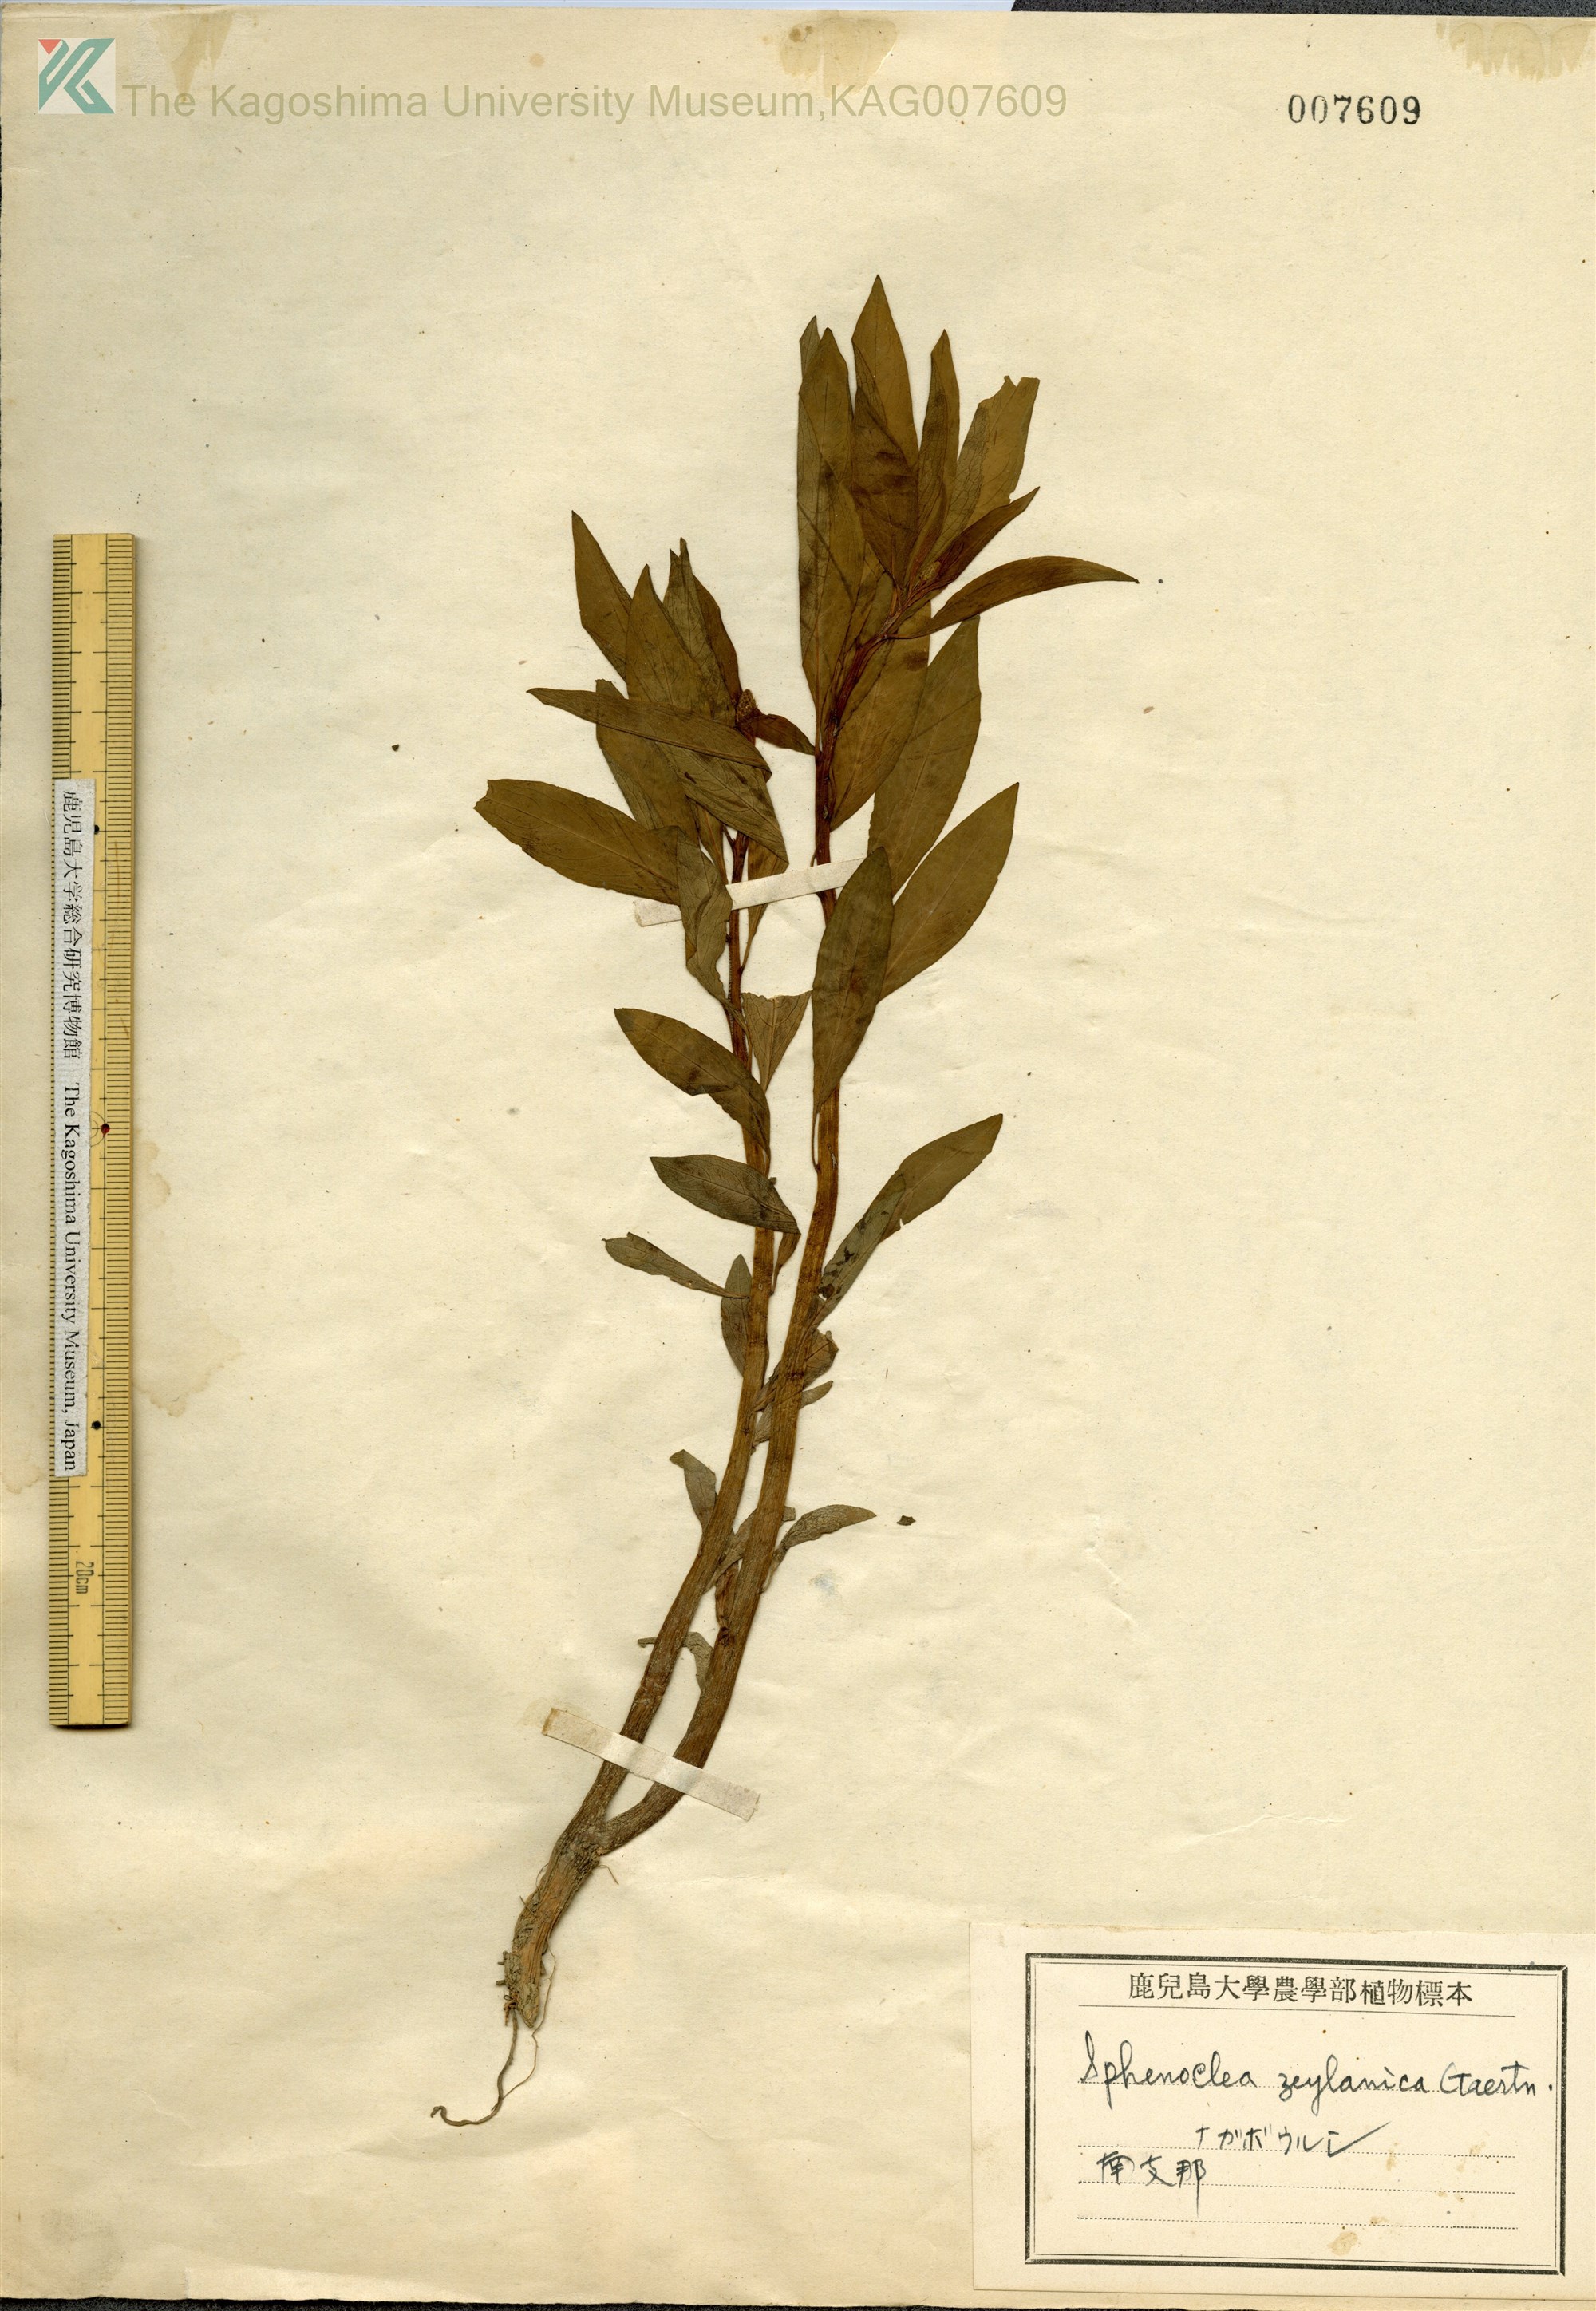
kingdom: Plantae
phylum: Tracheophyta
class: Magnoliopsida
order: Solanales
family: Sphenocleaceae
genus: Sphenoclea
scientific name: Sphenoclea zeylanica
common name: Chickenspike
